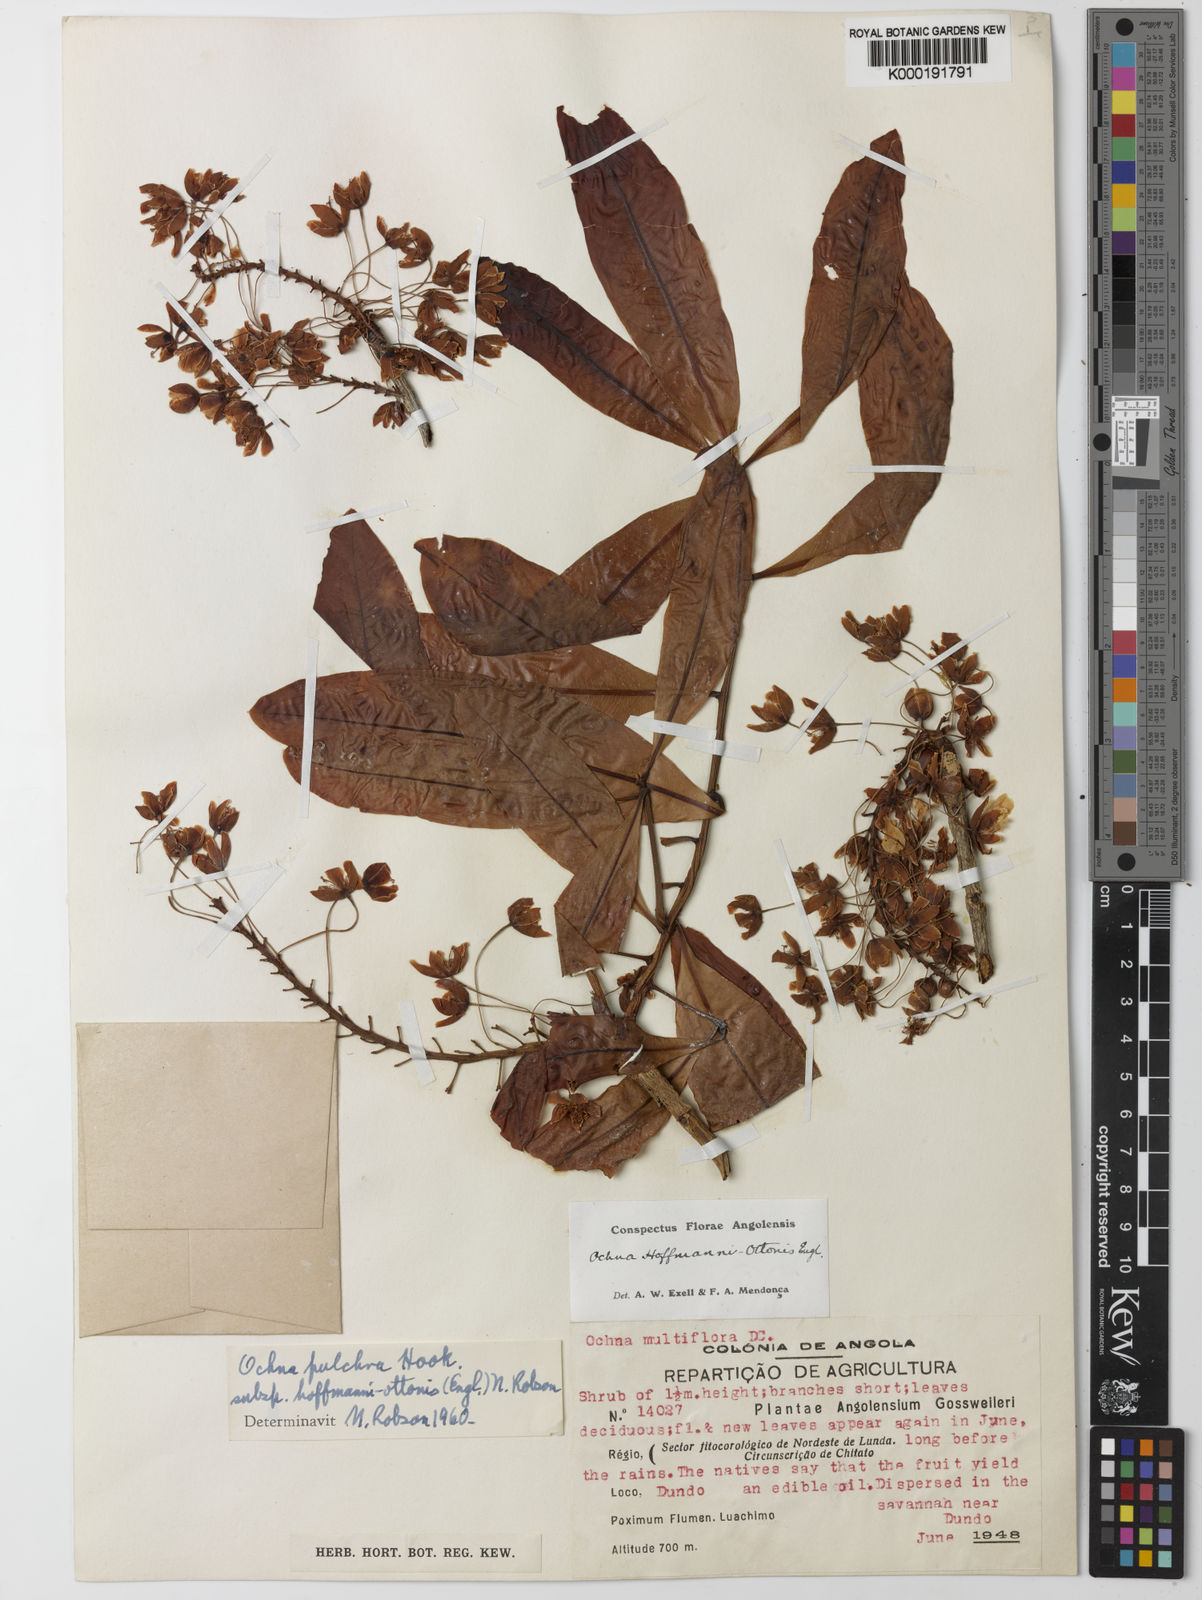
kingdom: Plantae
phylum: Tracheophyta
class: Magnoliopsida
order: Malpighiales
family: Ochnaceae
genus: Ochna
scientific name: Ochna pulchra
